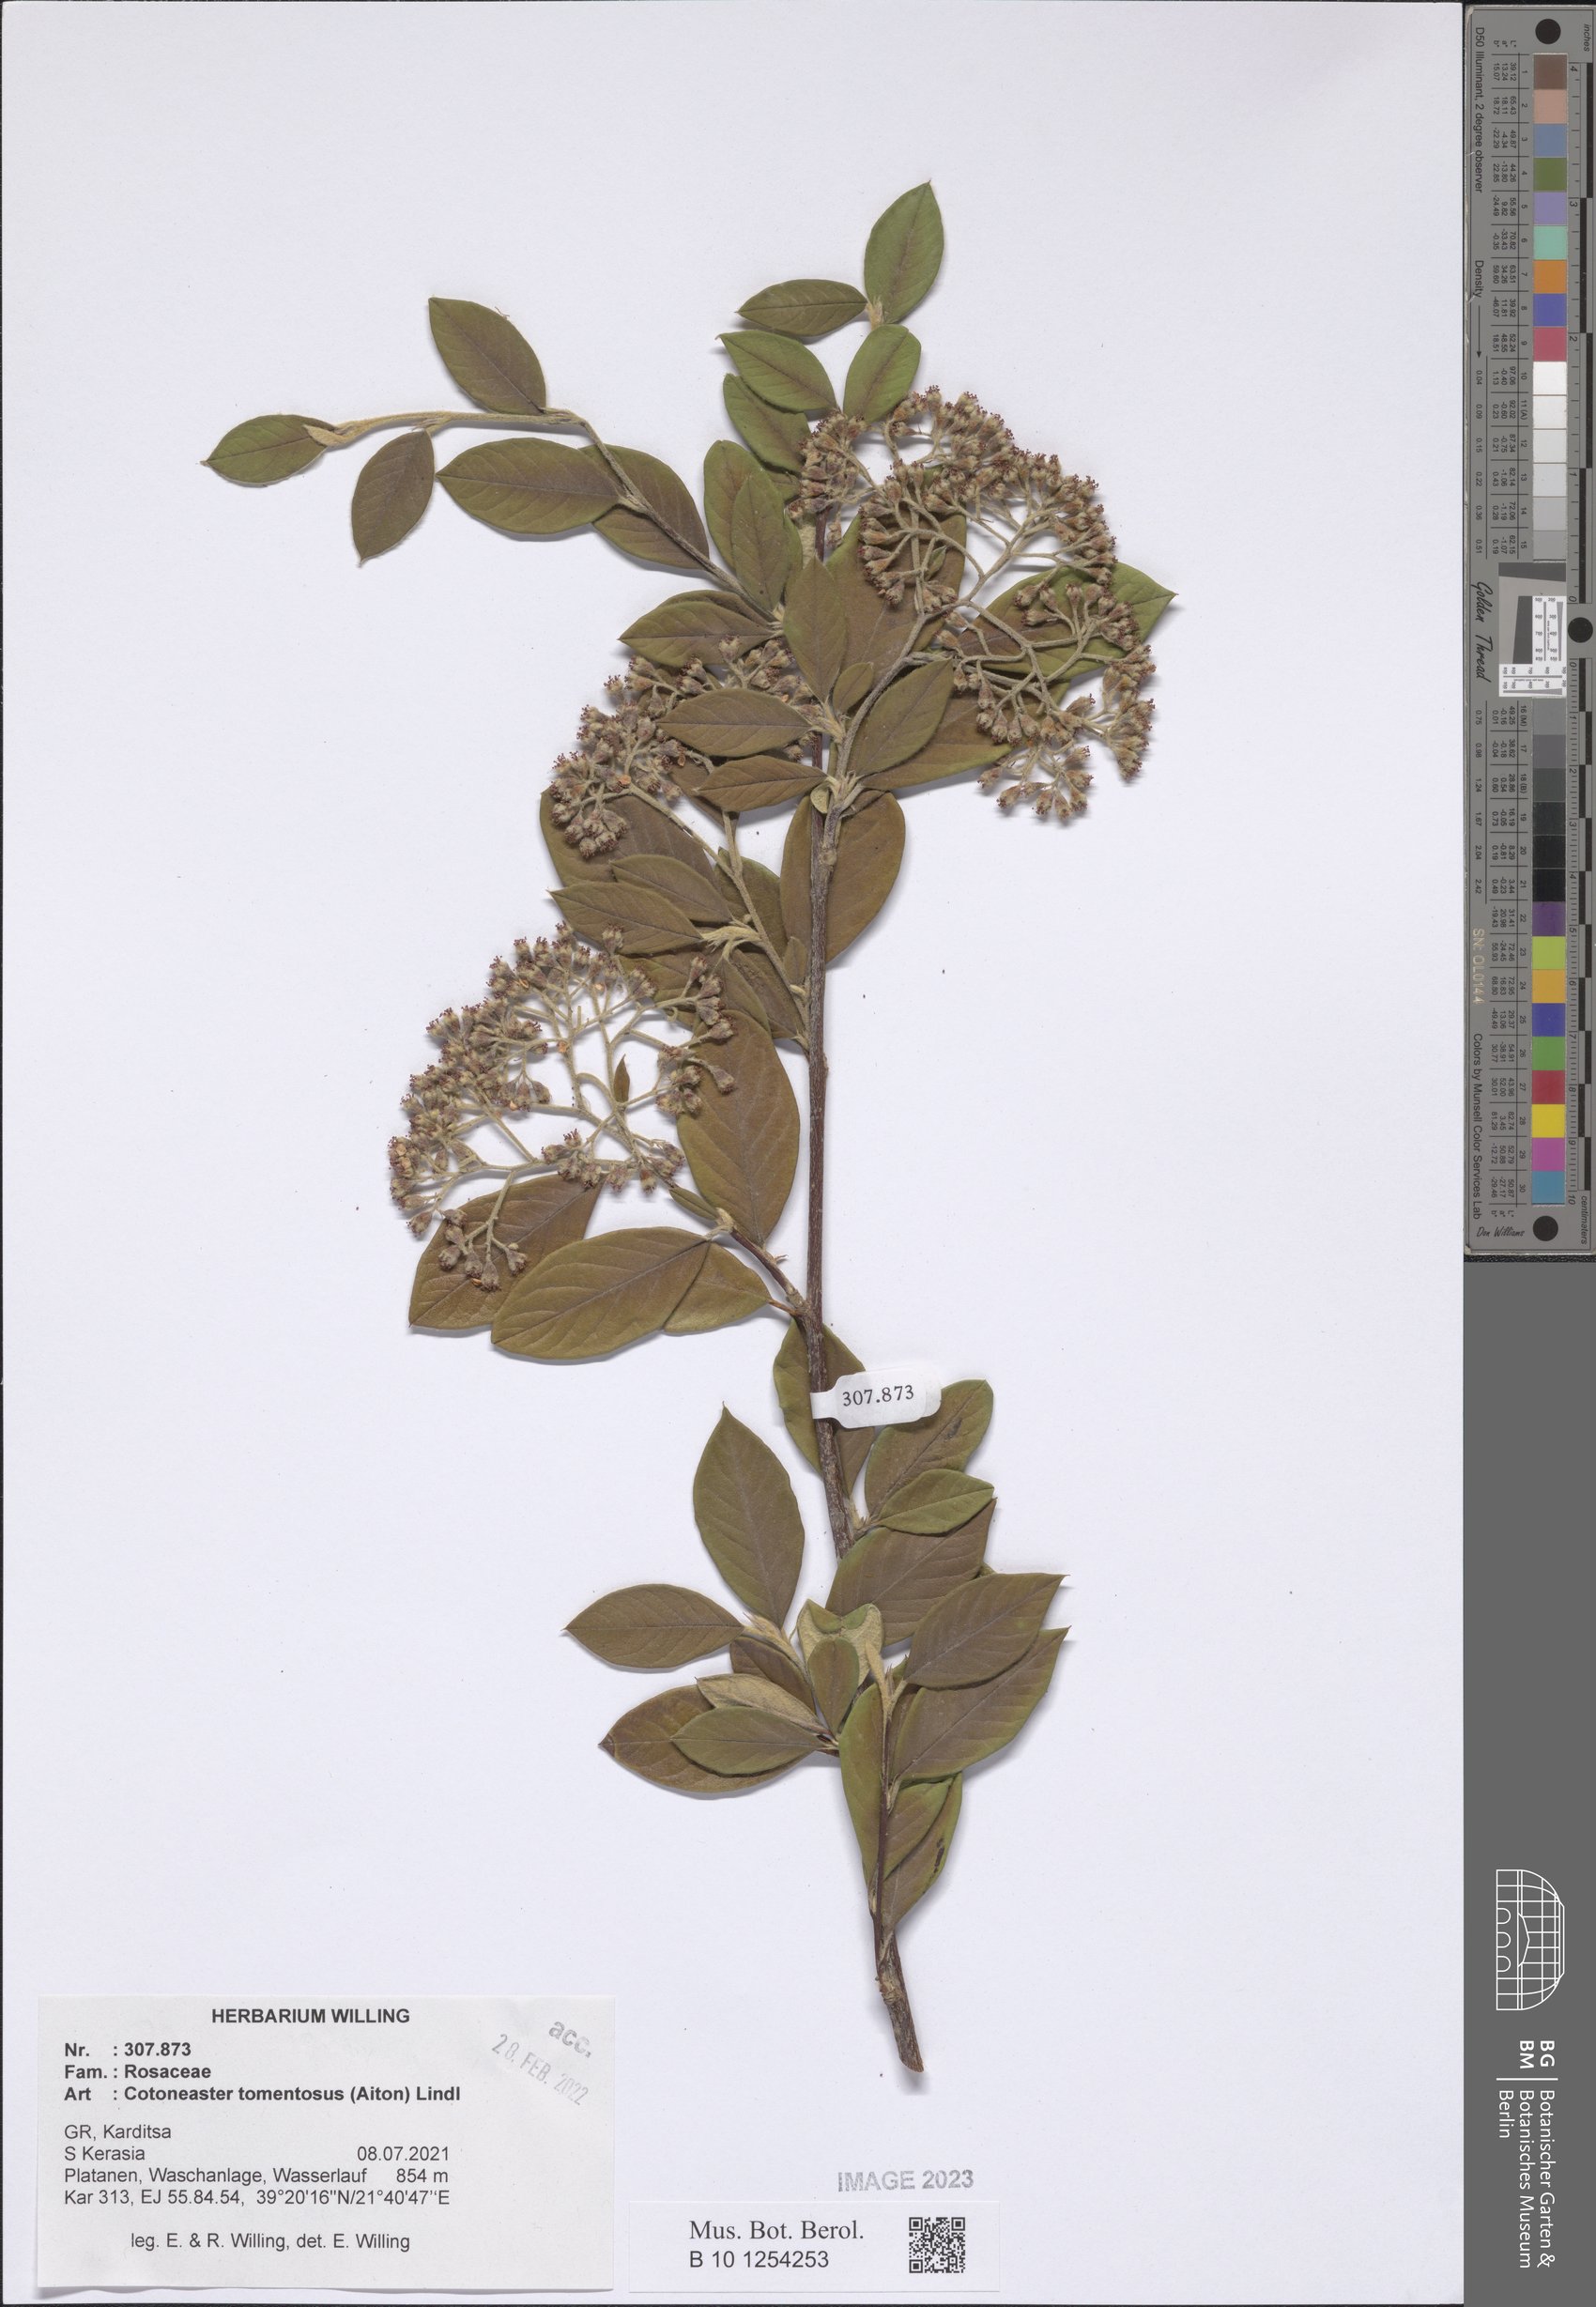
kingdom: Plantae
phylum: Tracheophyta
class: Magnoliopsida
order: Rosales
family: Rosaceae
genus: Cotoneaster
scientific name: Cotoneaster tomentosus
